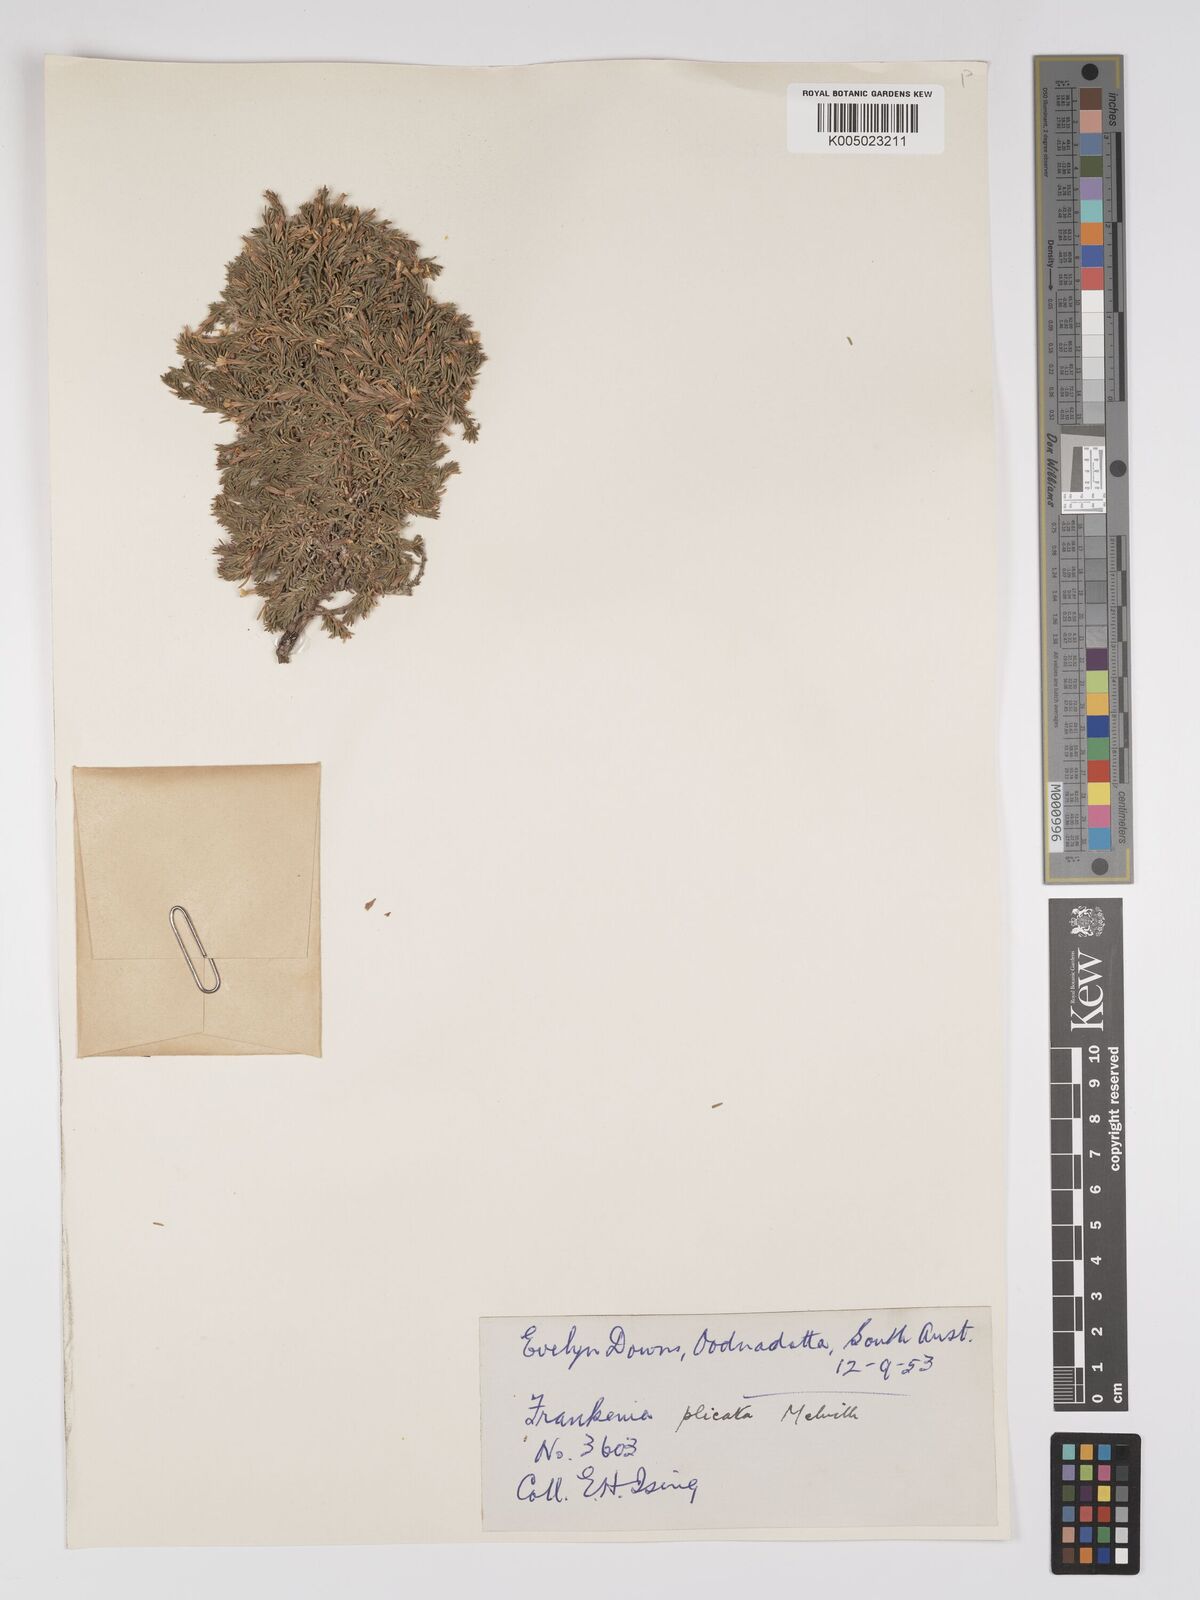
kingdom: Plantae
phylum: Tracheophyta
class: Magnoliopsida
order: Caryophyllales
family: Frankeniaceae
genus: Frankenia
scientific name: Frankenia plicata
